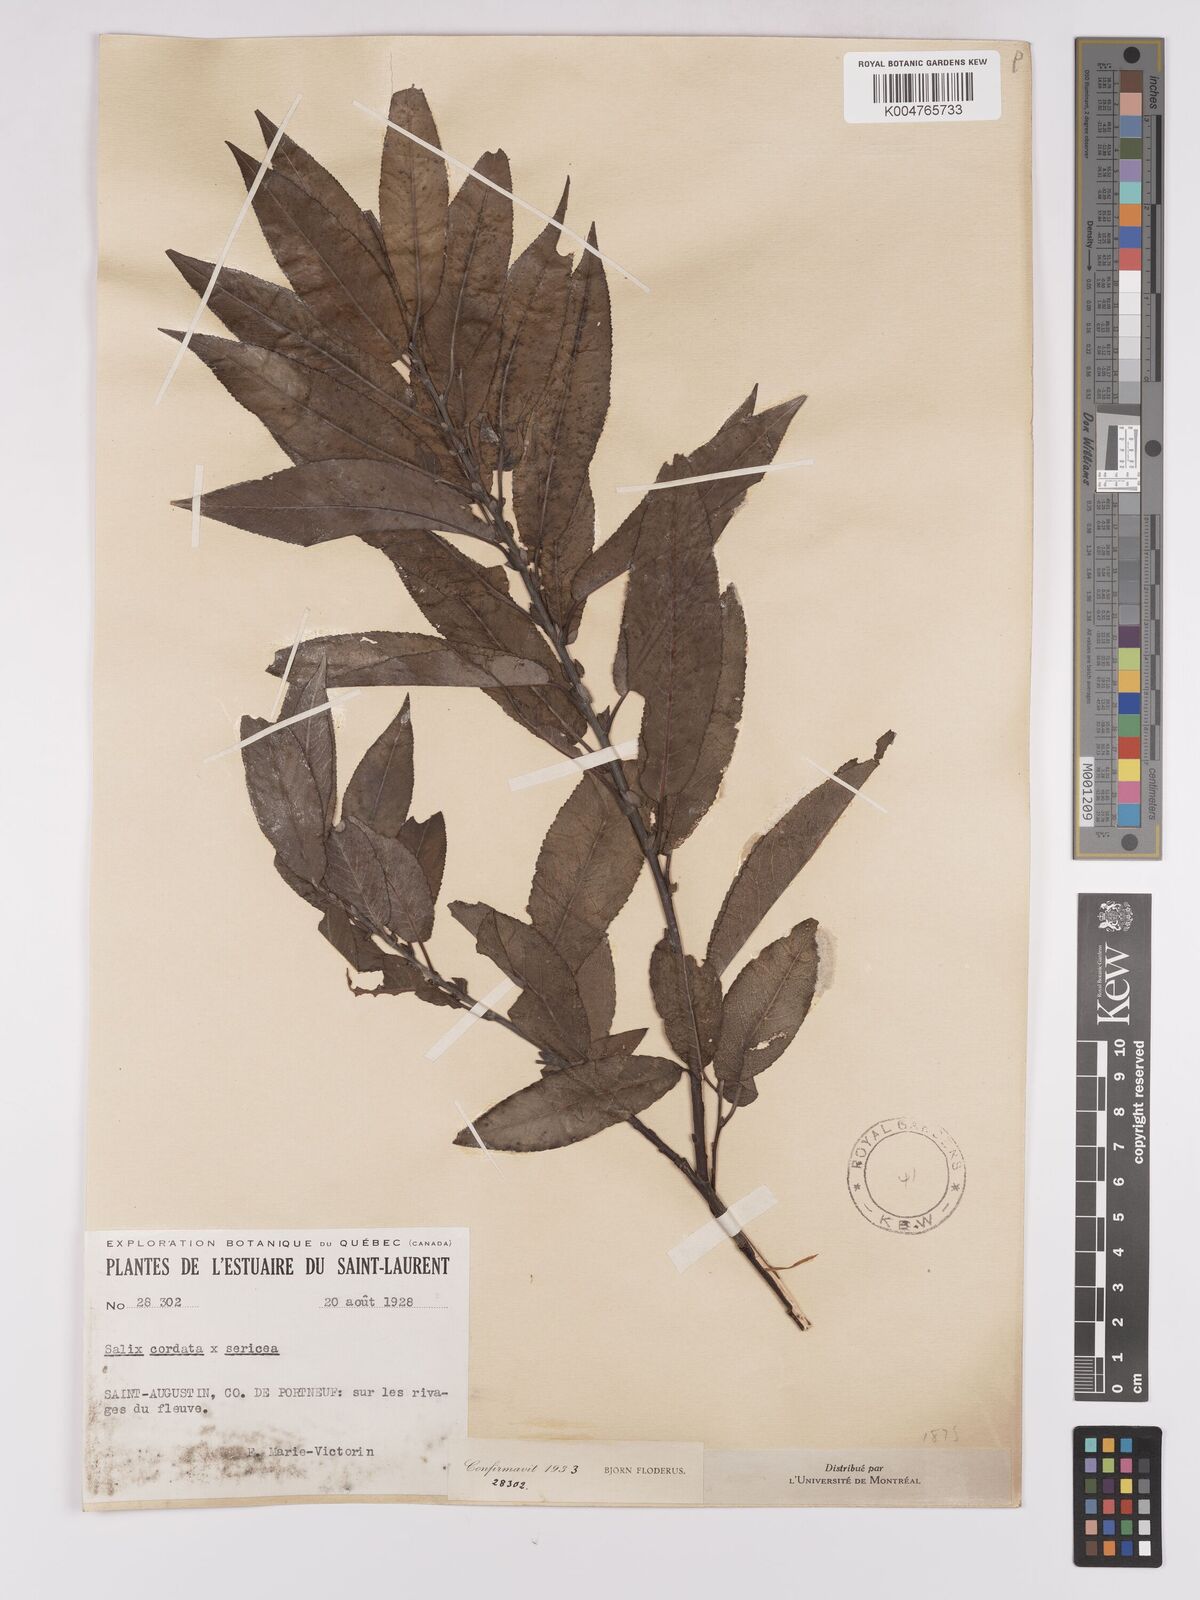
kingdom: Plantae
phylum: Tracheophyta
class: Magnoliopsida
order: Malpighiales
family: Salicaceae
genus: Salix
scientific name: Salix
